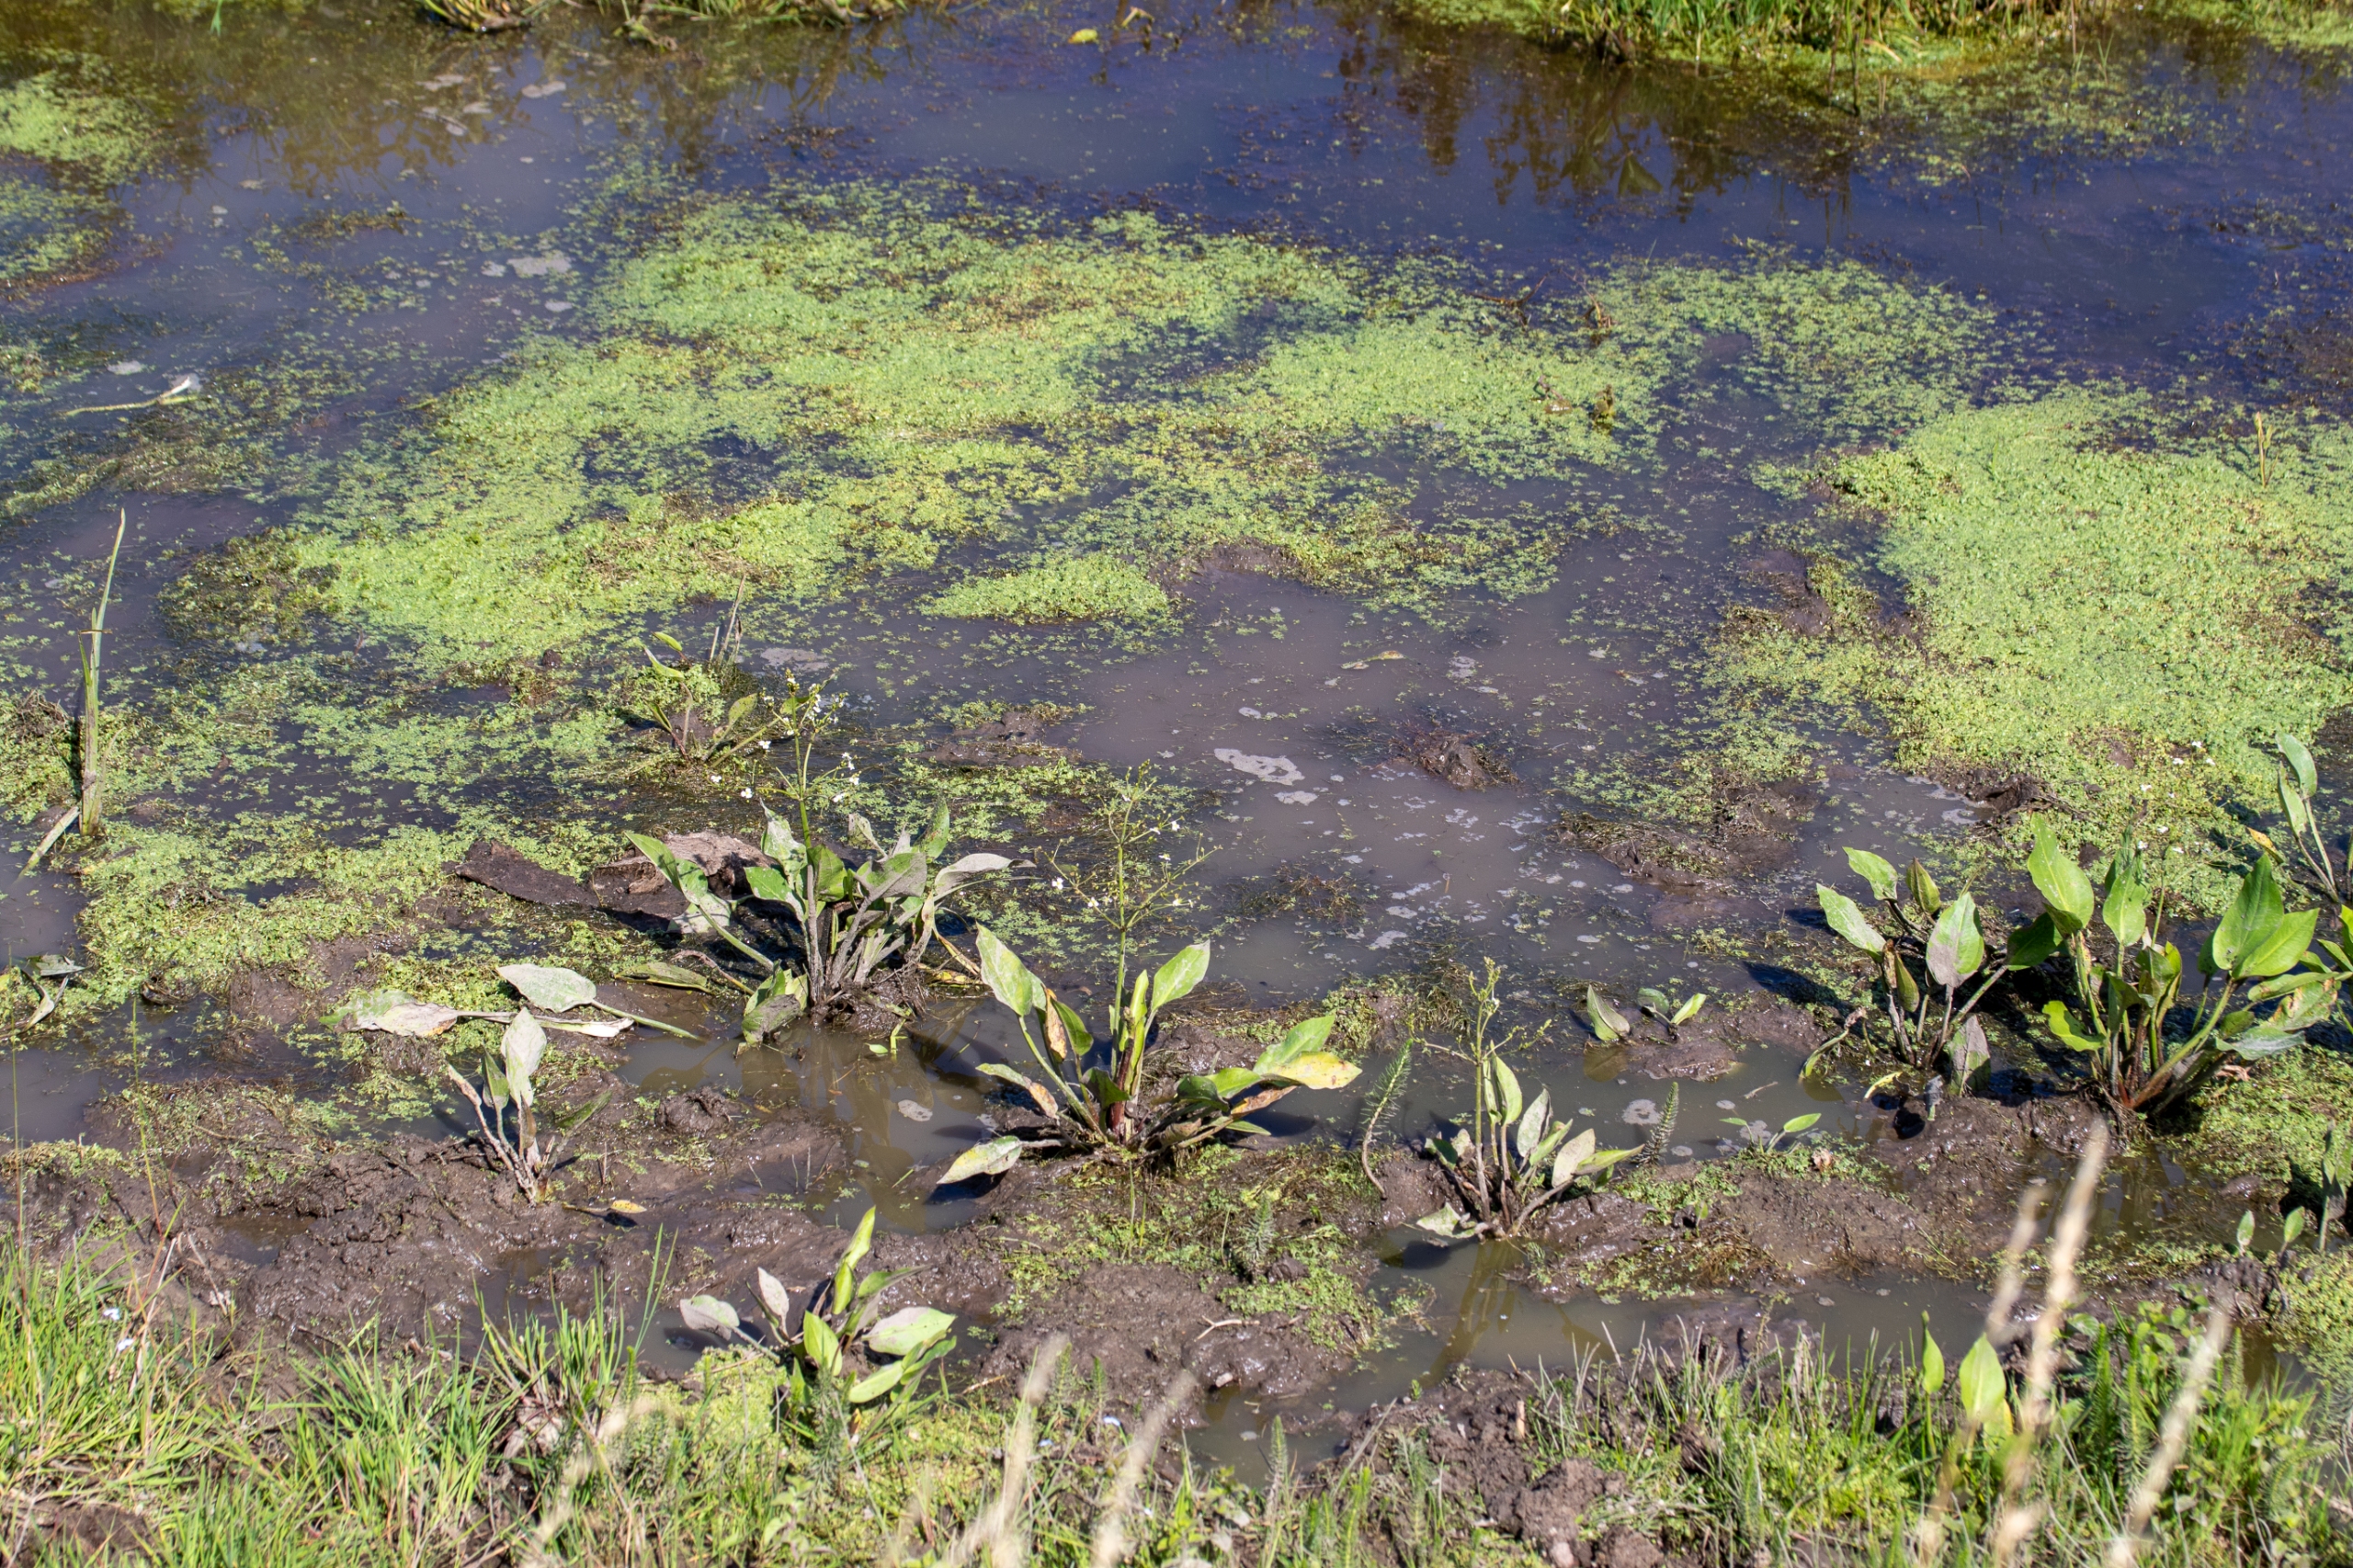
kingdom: Plantae
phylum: Tracheophyta
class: Liliopsida
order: Alismatales
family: Alismataceae
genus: Alisma
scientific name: Alisma plantago-aquatica
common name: Vejbred-skeblad
